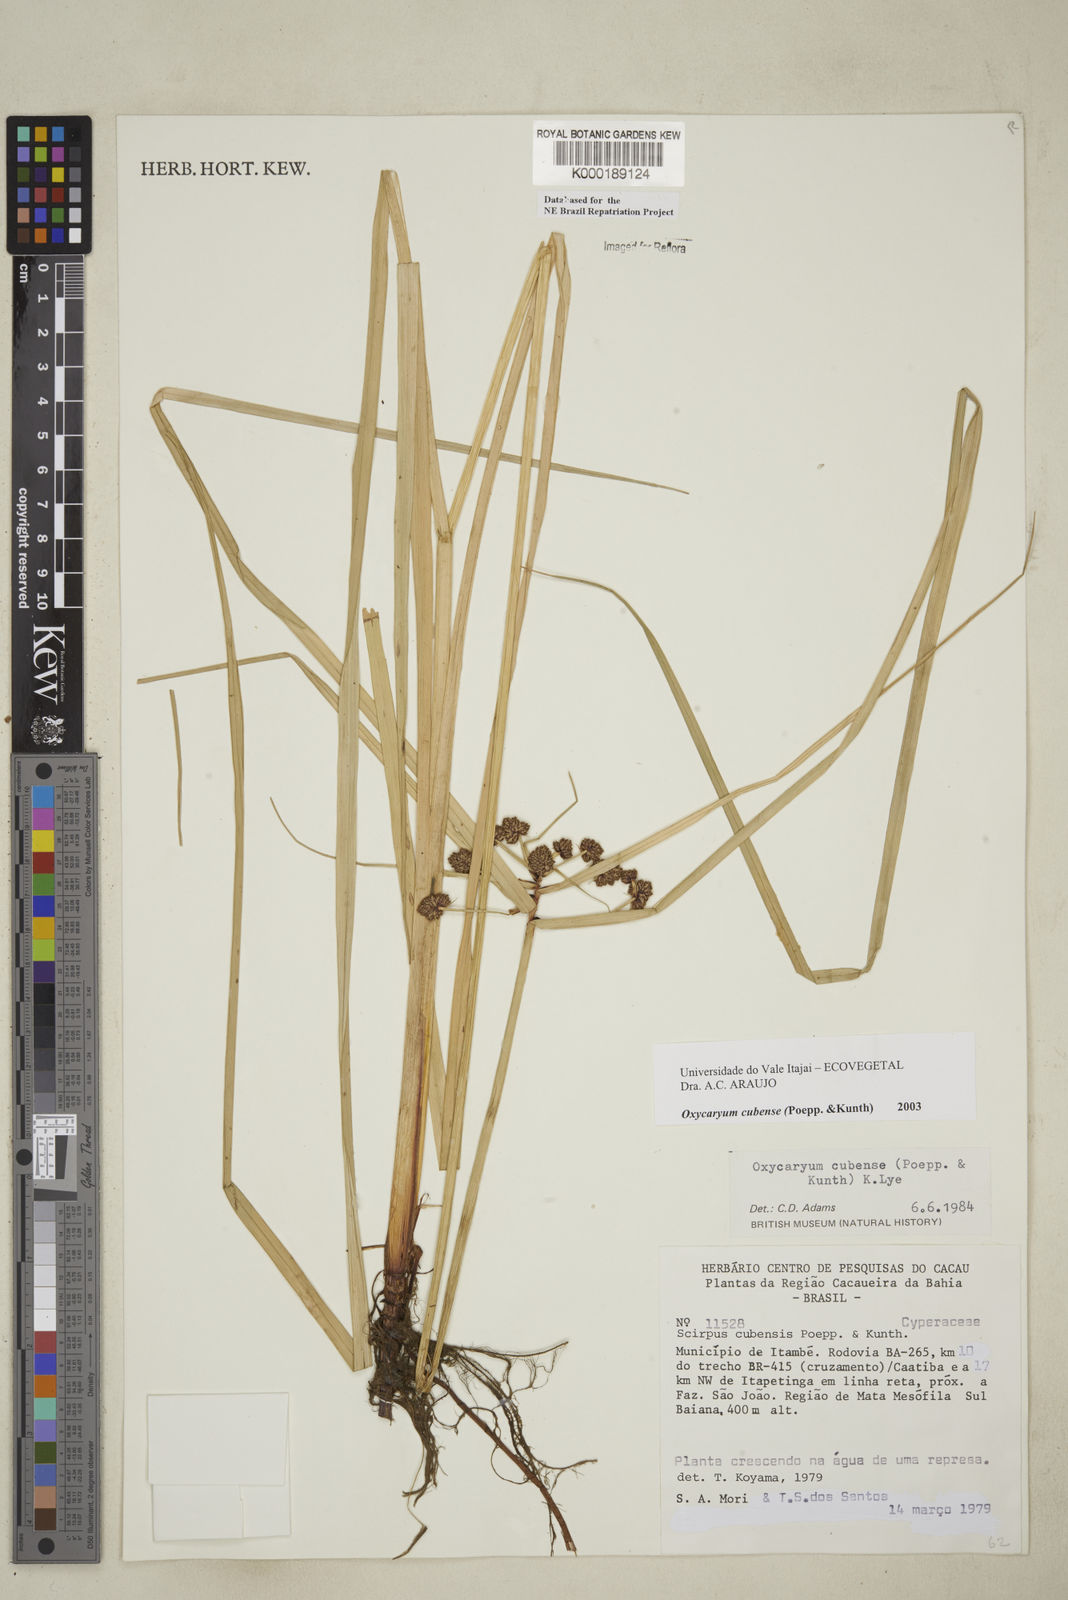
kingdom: Plantae
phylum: Tracheophyta
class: Liliopsida
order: Poales
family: Cyperaceae
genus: Cyperus
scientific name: Cyperus blepharoleptos
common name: Cuban bulrush
